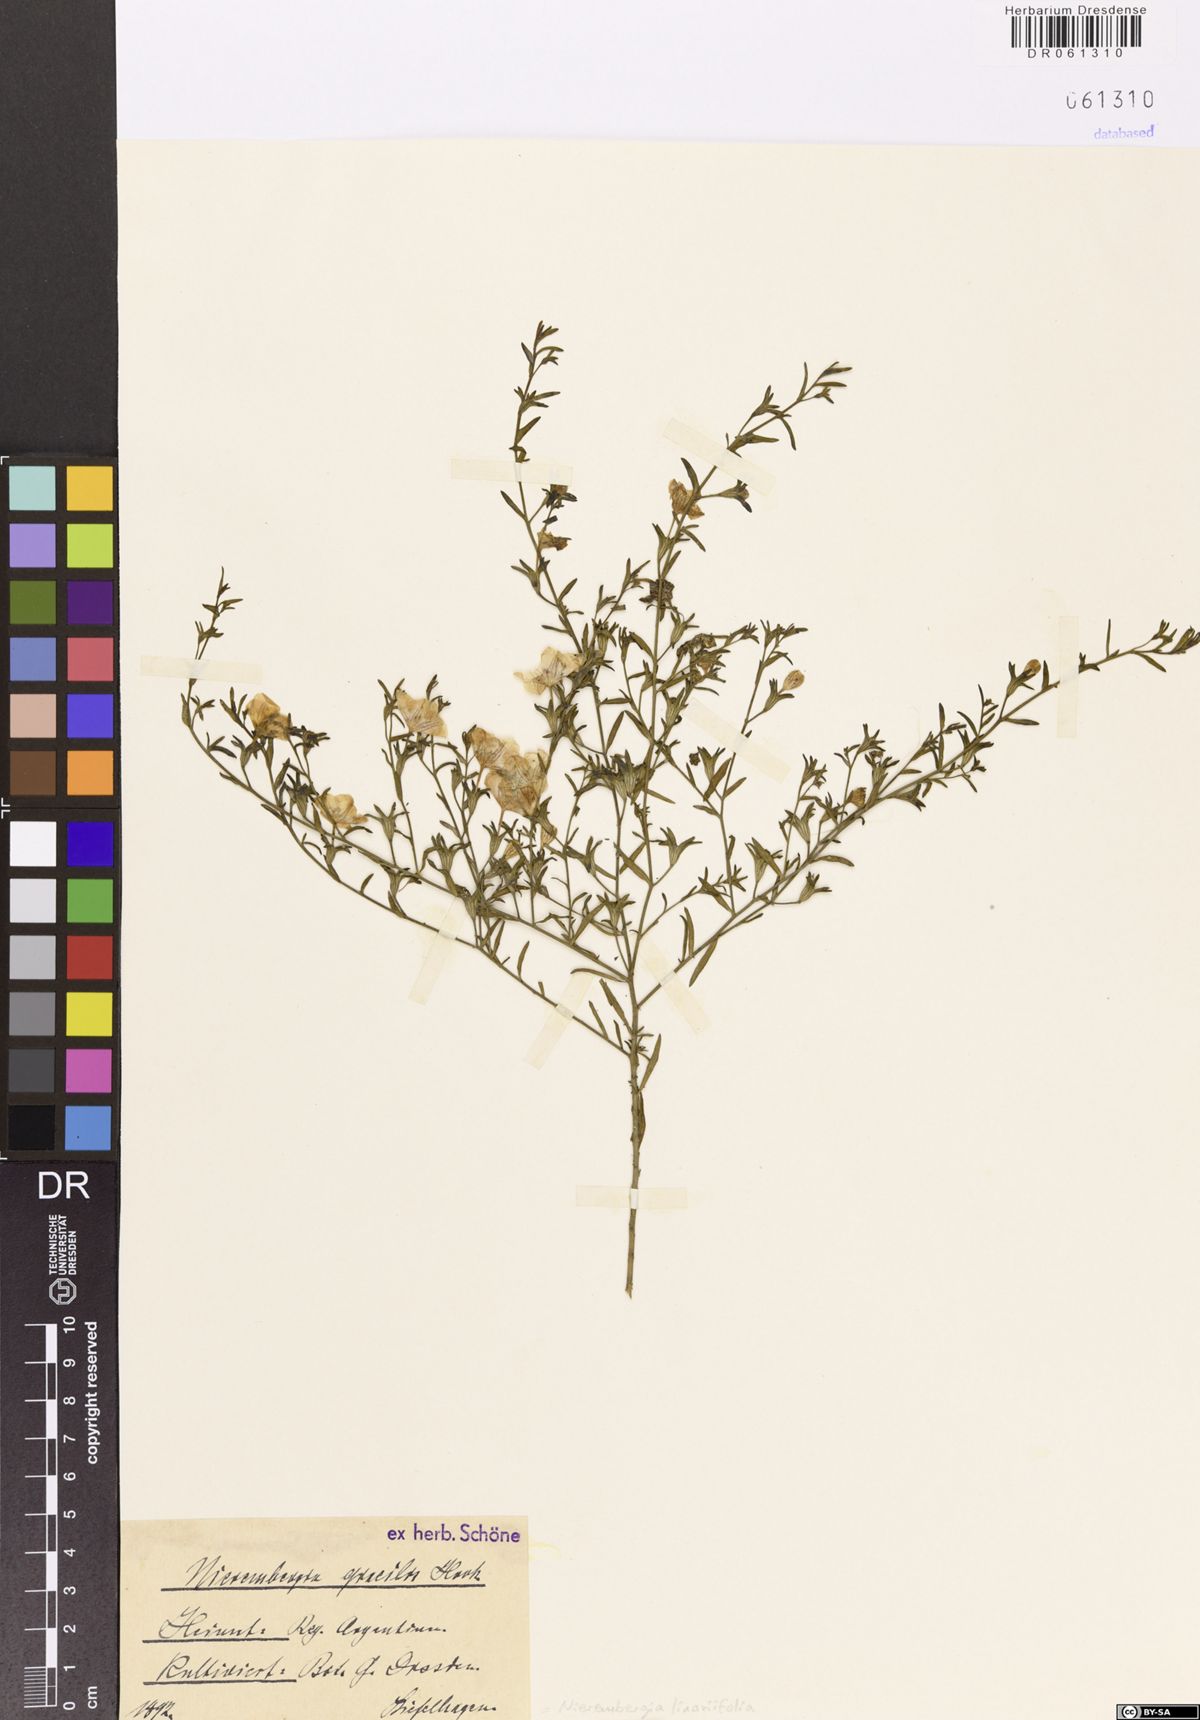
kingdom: Plantae
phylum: Tracheophyta
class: Magnoliopsida
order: Solanales
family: Solanaceae
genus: Nierembergia
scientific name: Nierembergia linariifolia
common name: Dwarf cupflower
